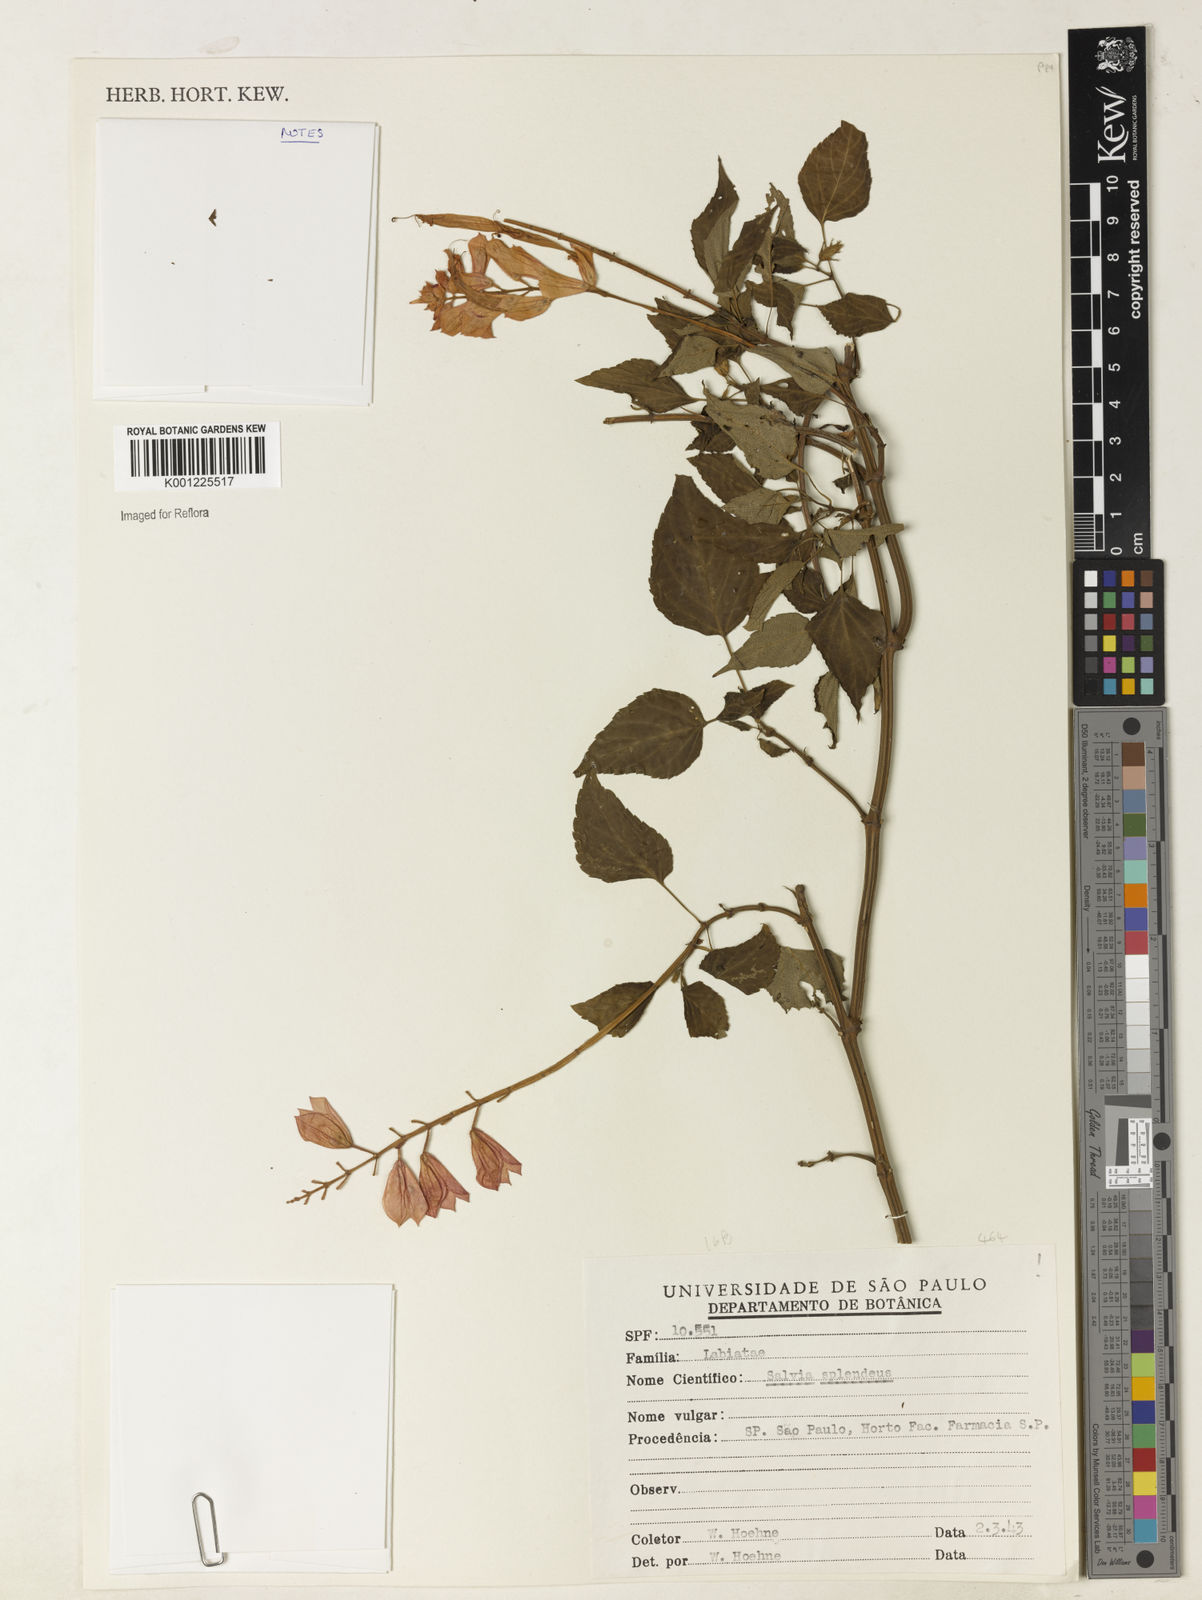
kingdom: Plantae
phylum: Tracheophyta
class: Magnoliopsida
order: Lamiales
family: Lamiaceae
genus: Salvia
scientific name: Salvia
